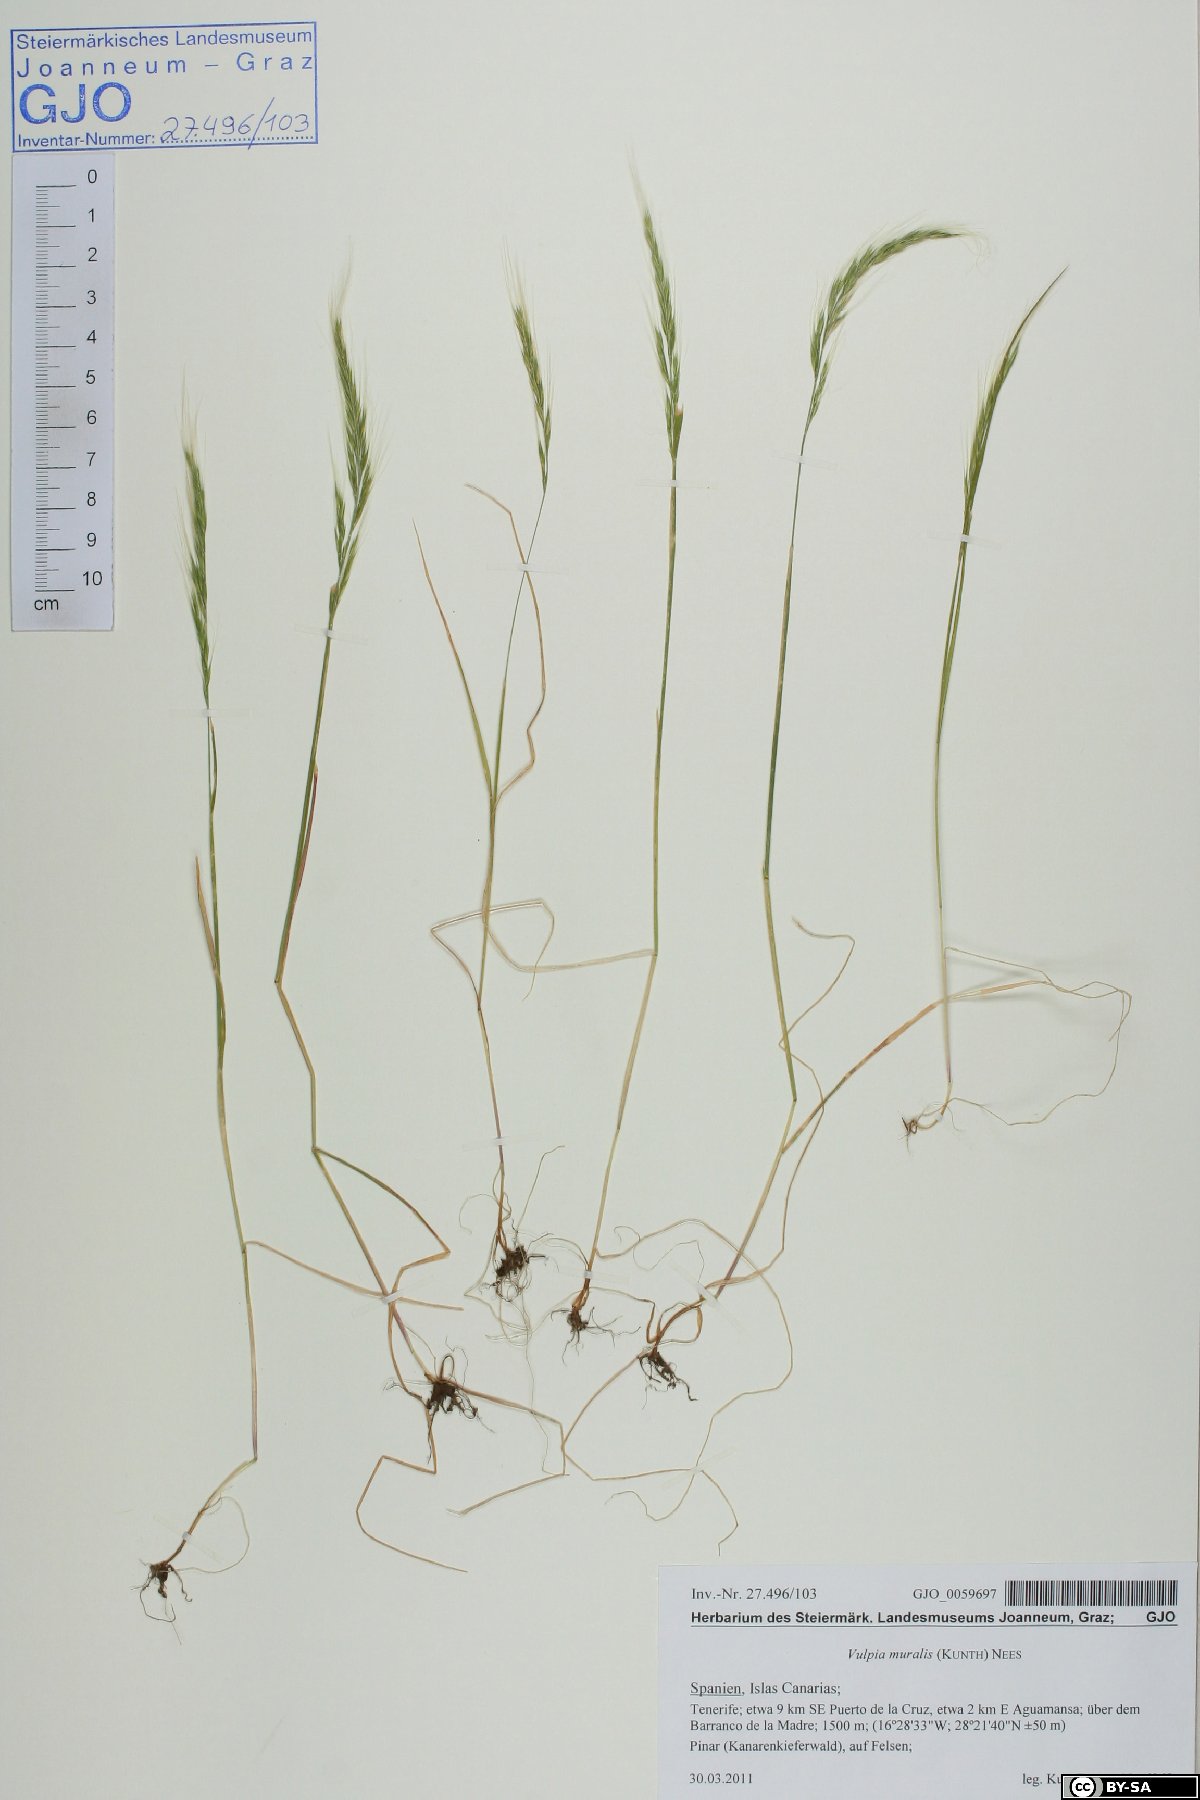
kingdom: Plantae
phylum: Tracheophyta
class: Liliopsida
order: Poales
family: Poaceae
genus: Festuca
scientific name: Festuca muralis
